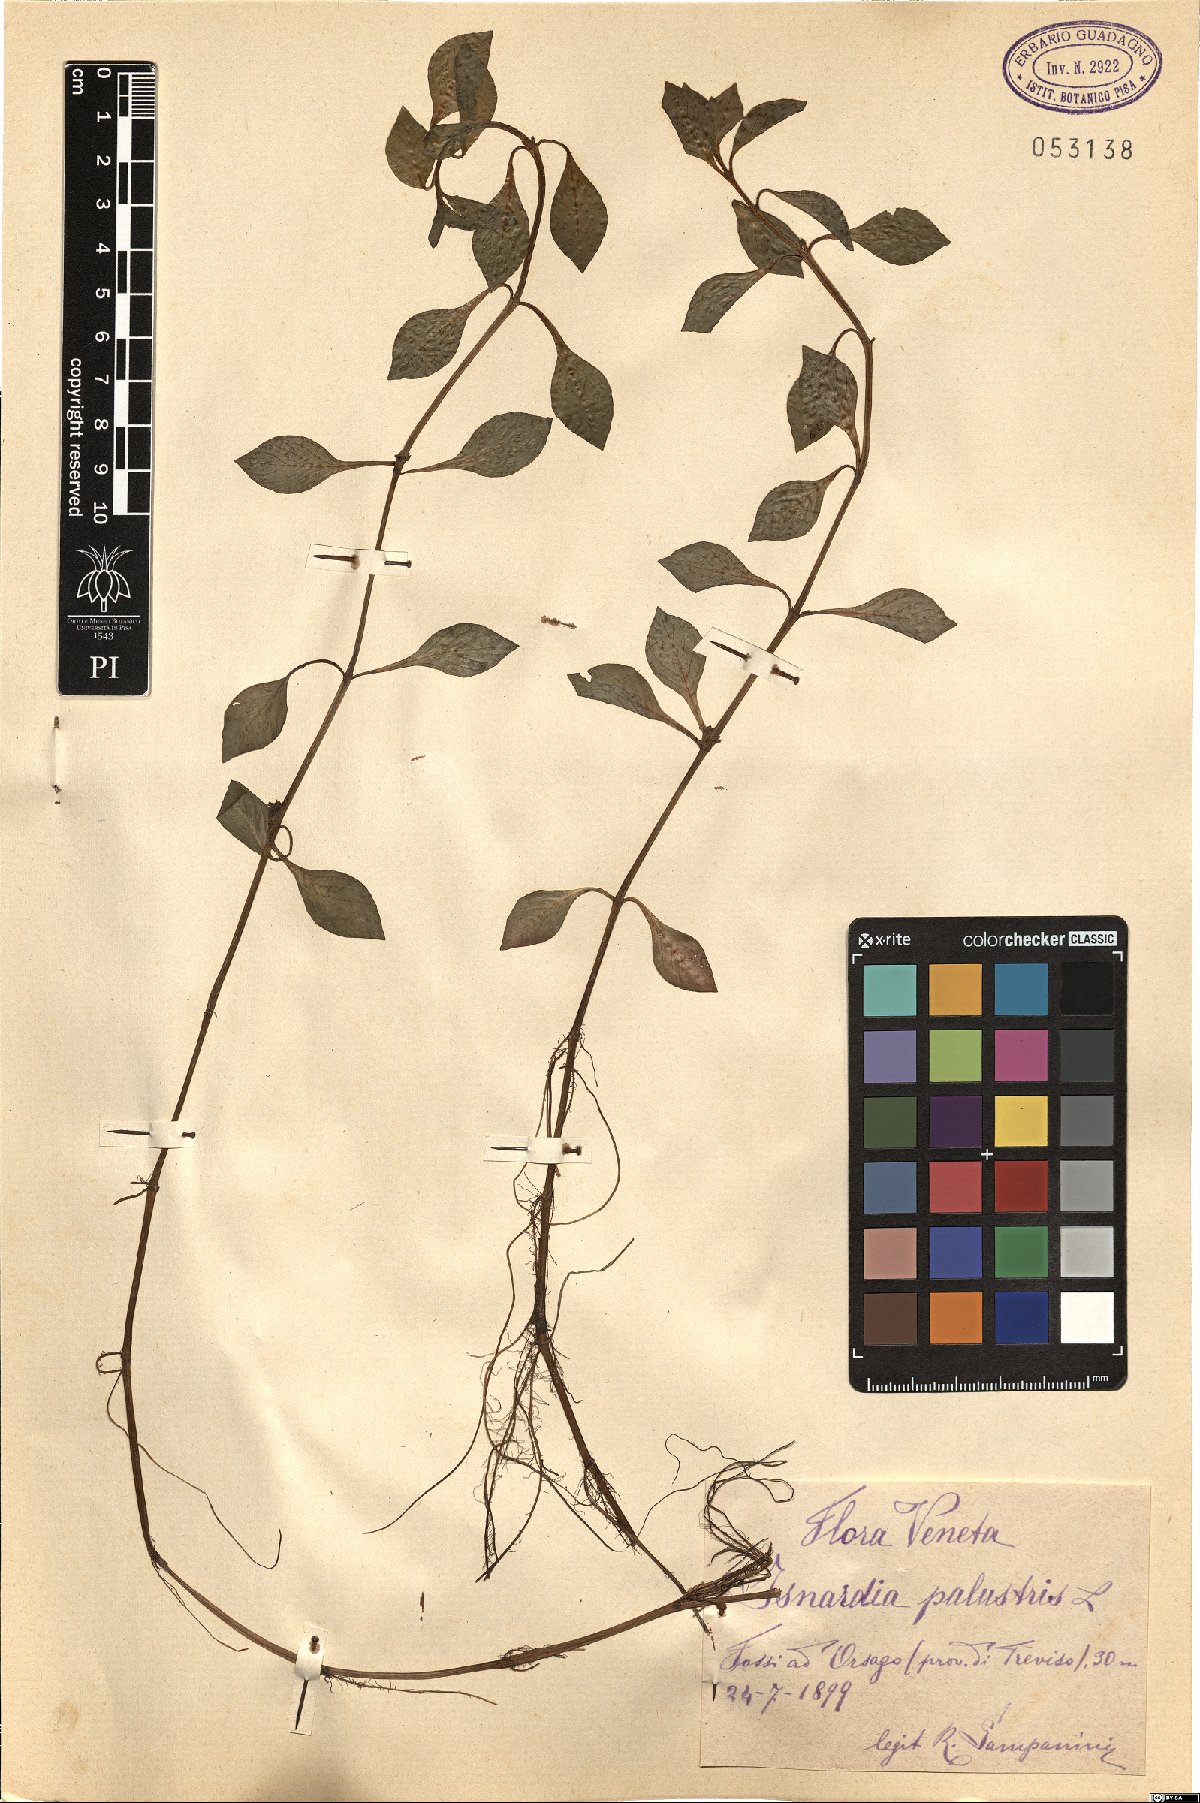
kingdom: Plantae
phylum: Tracheophyta
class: Magnoliopsida
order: Myrtales
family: Onagraceae
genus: Ludwigia
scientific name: Ludwigia palustris
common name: Hampshire-purslane
